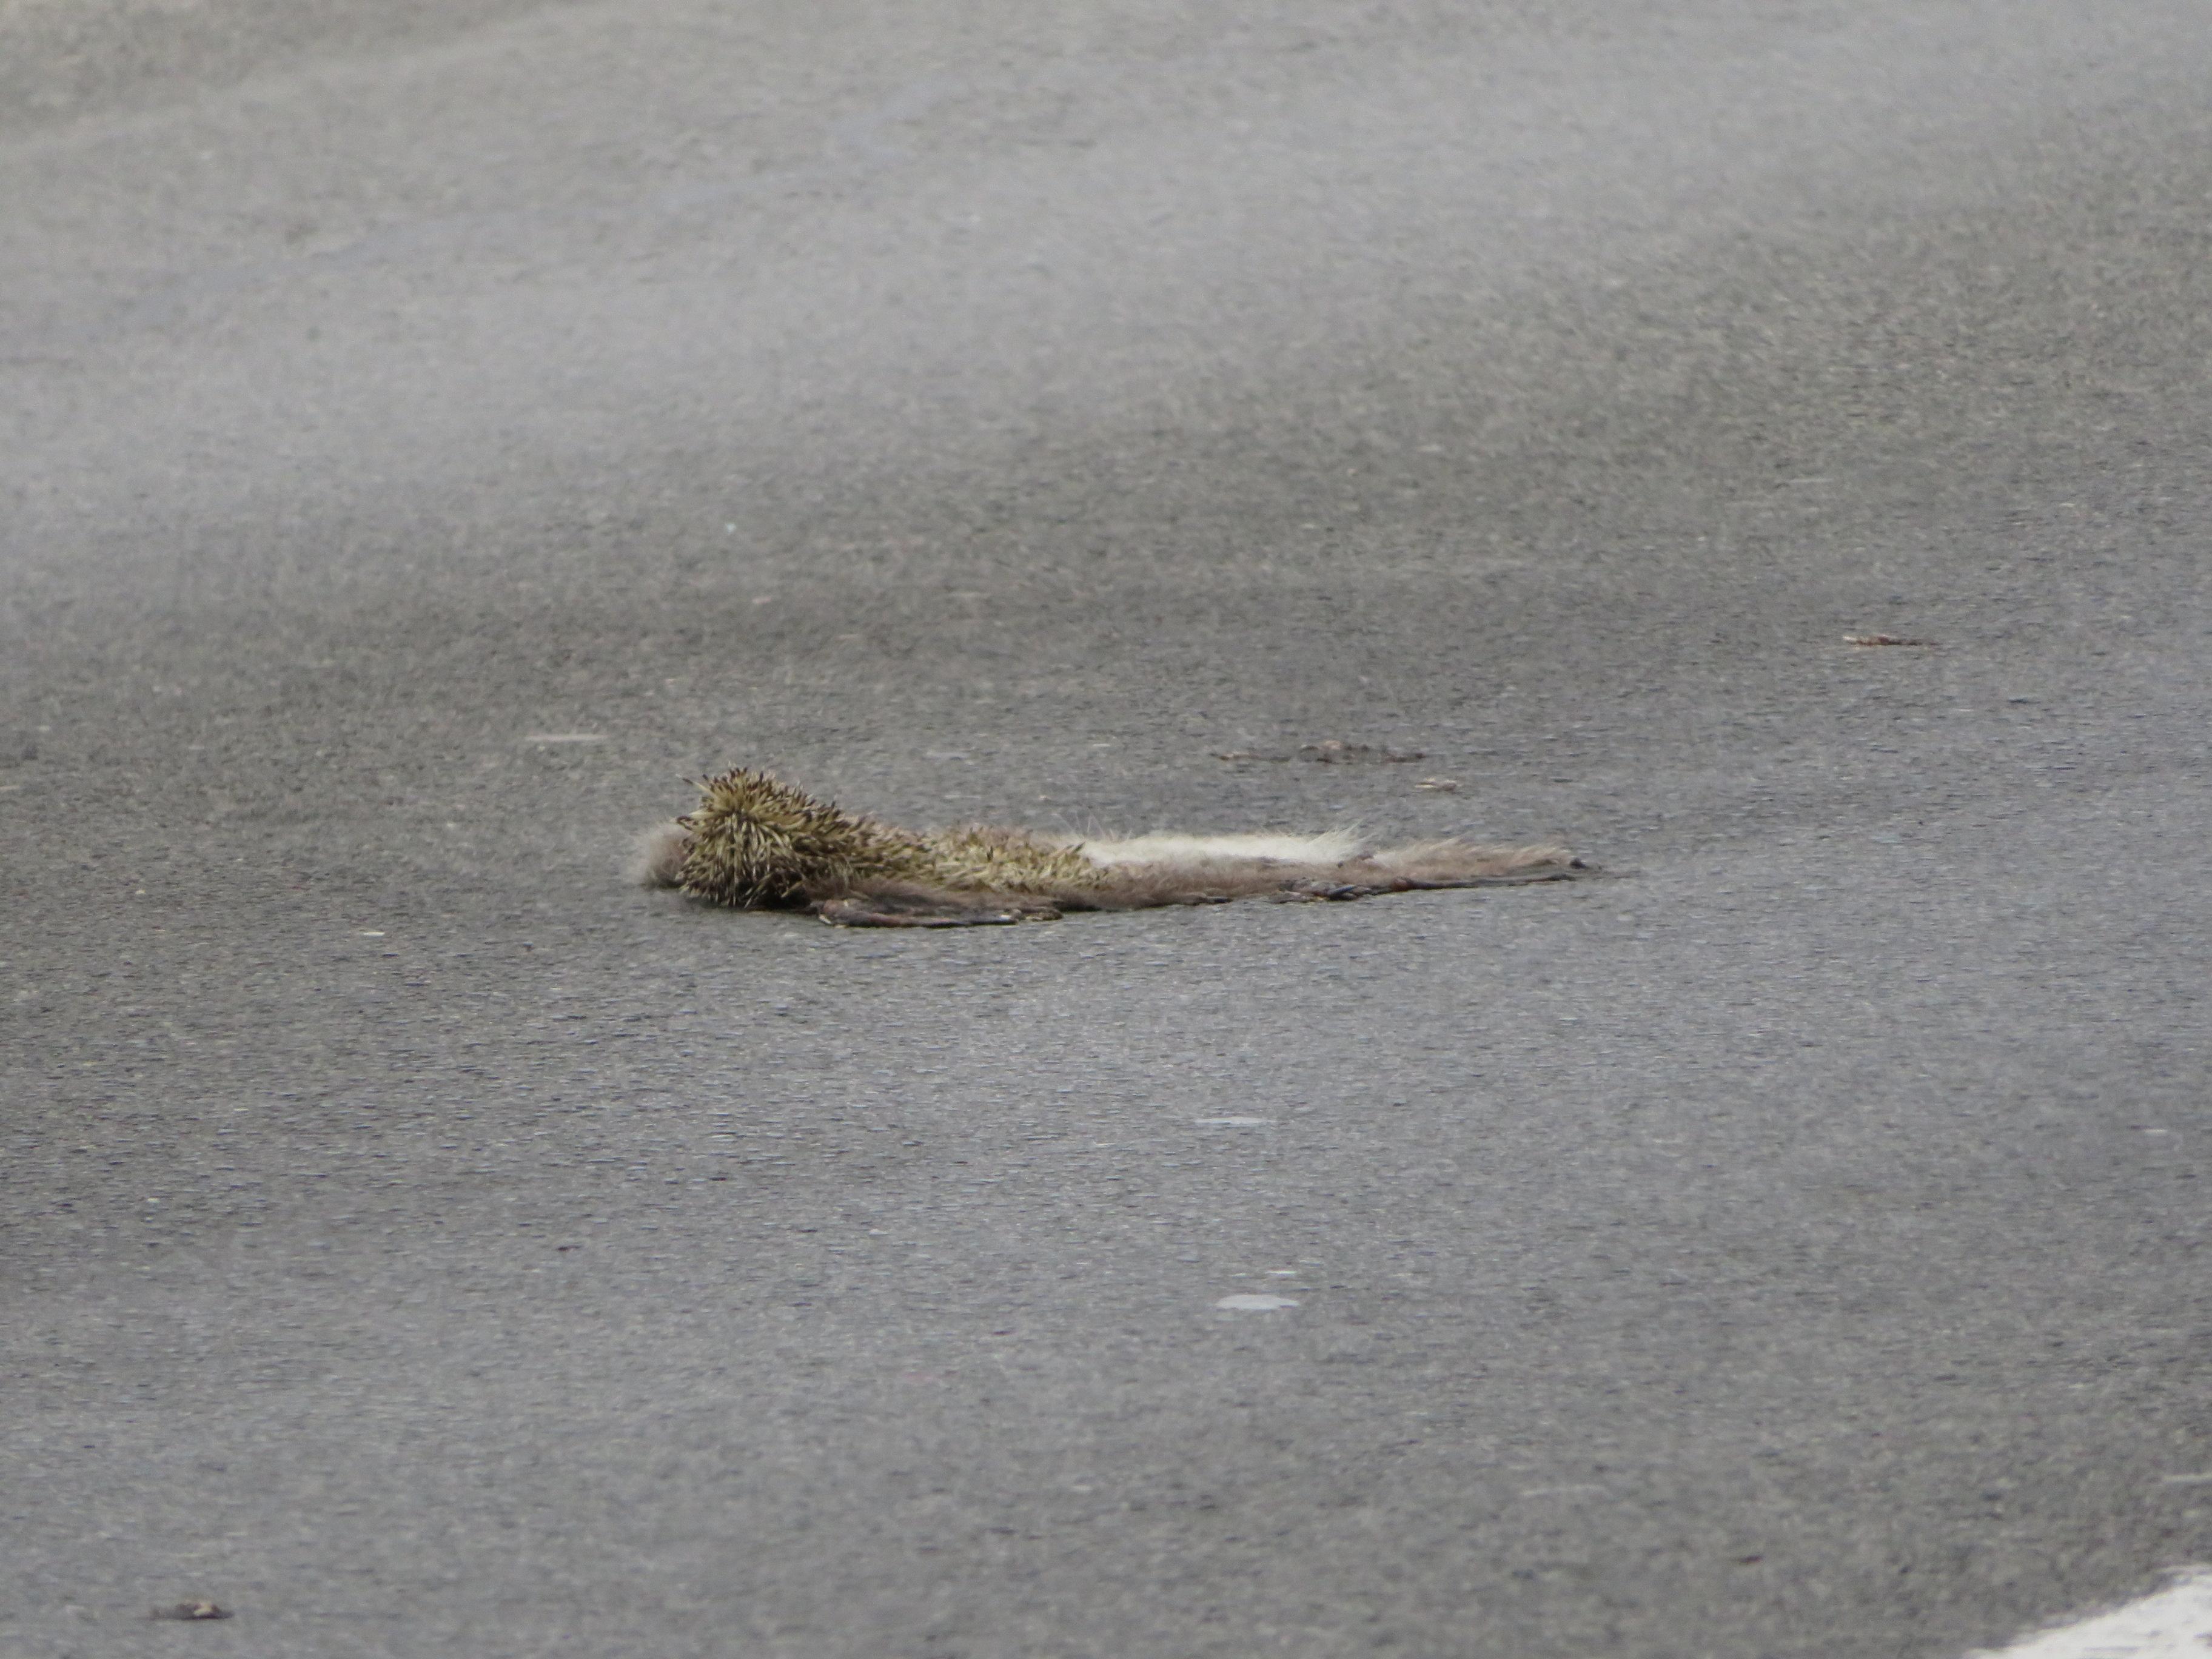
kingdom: Animalia
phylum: Chordata
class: Mammalia
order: Erinaceomorpha
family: Erinaceidae
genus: Erinaceus
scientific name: Erinaceus
